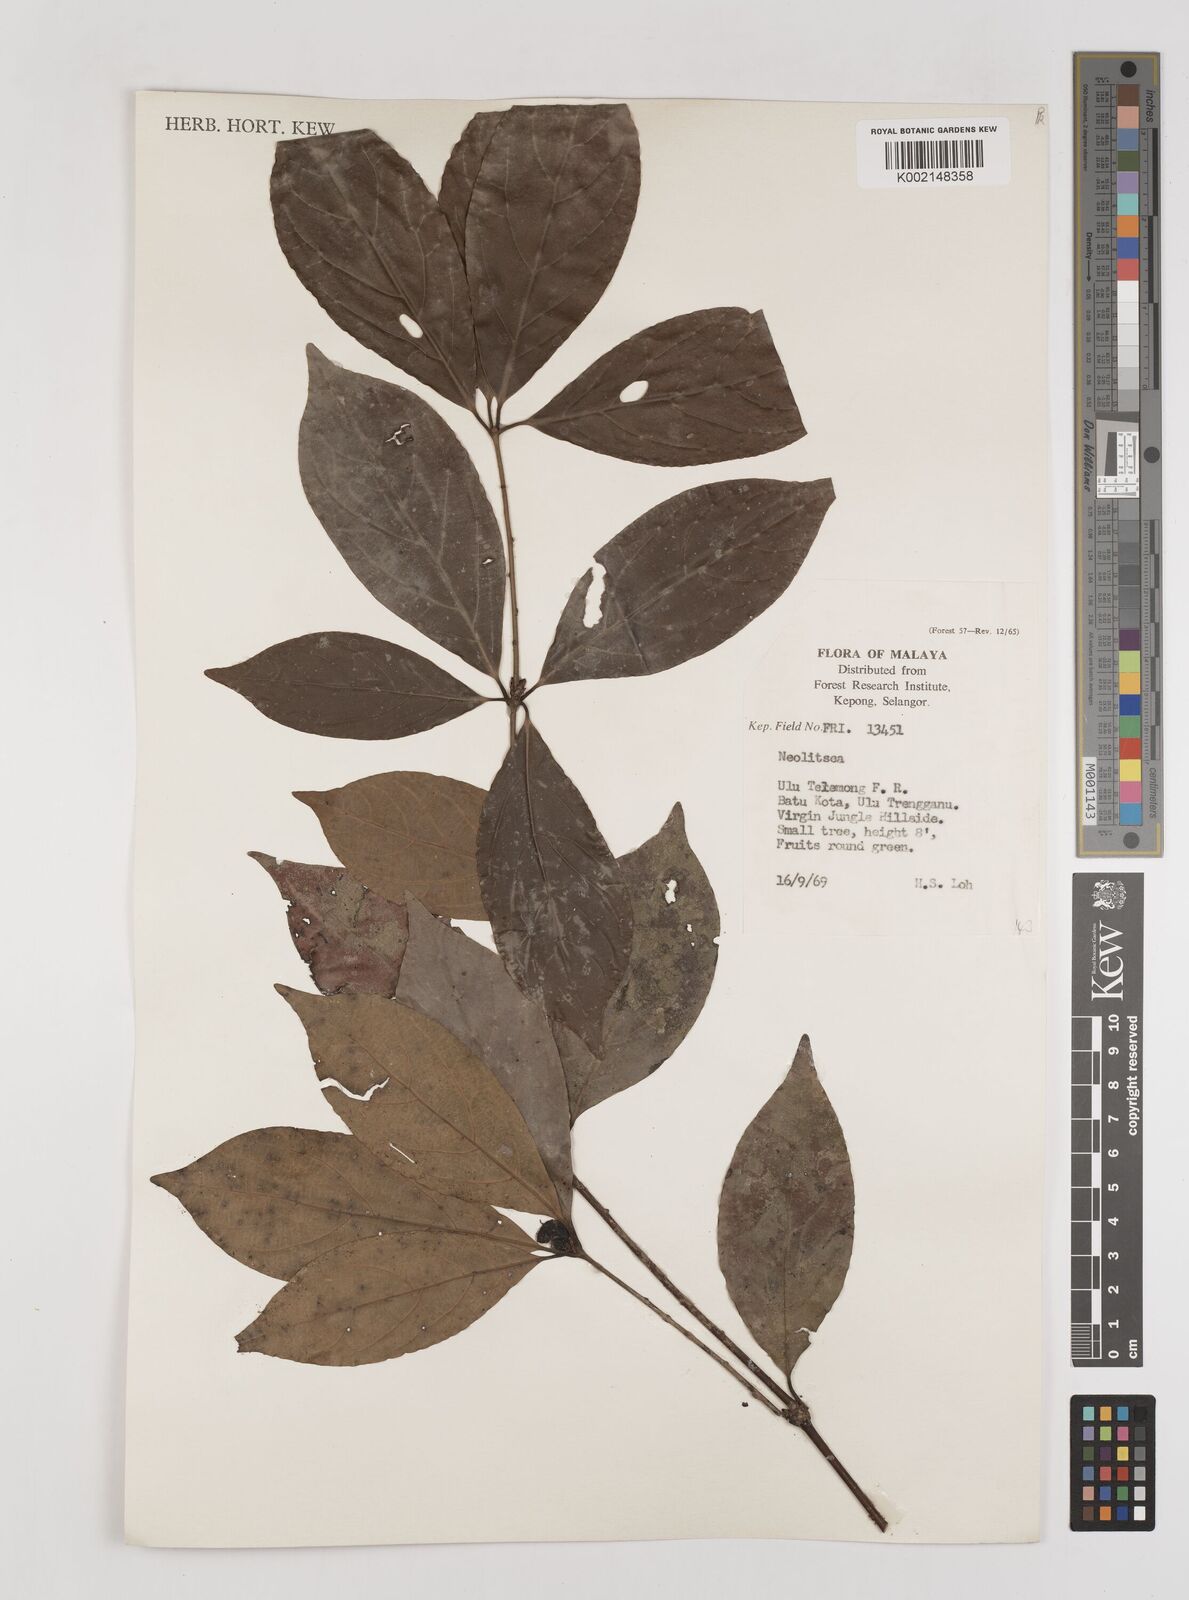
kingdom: Plantae
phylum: Tracheophyta
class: Magnoliopsida
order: Laurales
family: Lauraceae
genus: Neolitsea
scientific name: Neolitsea
